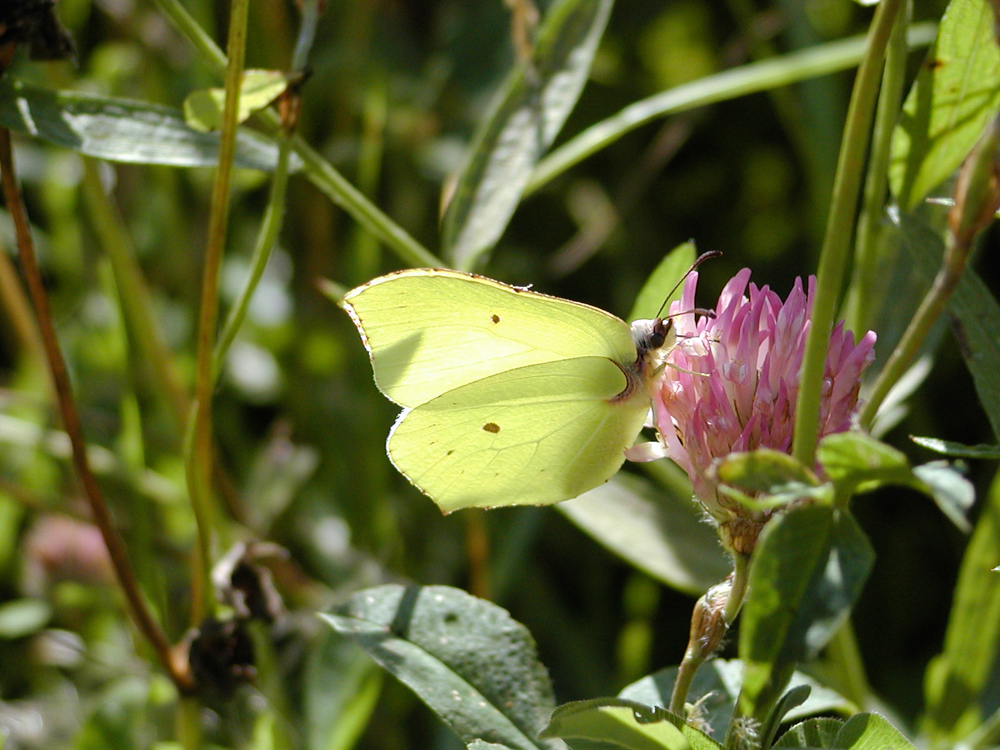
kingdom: Animalia
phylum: Arthropoda
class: Insecta
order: Lepidoptera
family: Pieridae
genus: Gonepteryx
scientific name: Gonepteryx rhamni
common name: Brimstone
